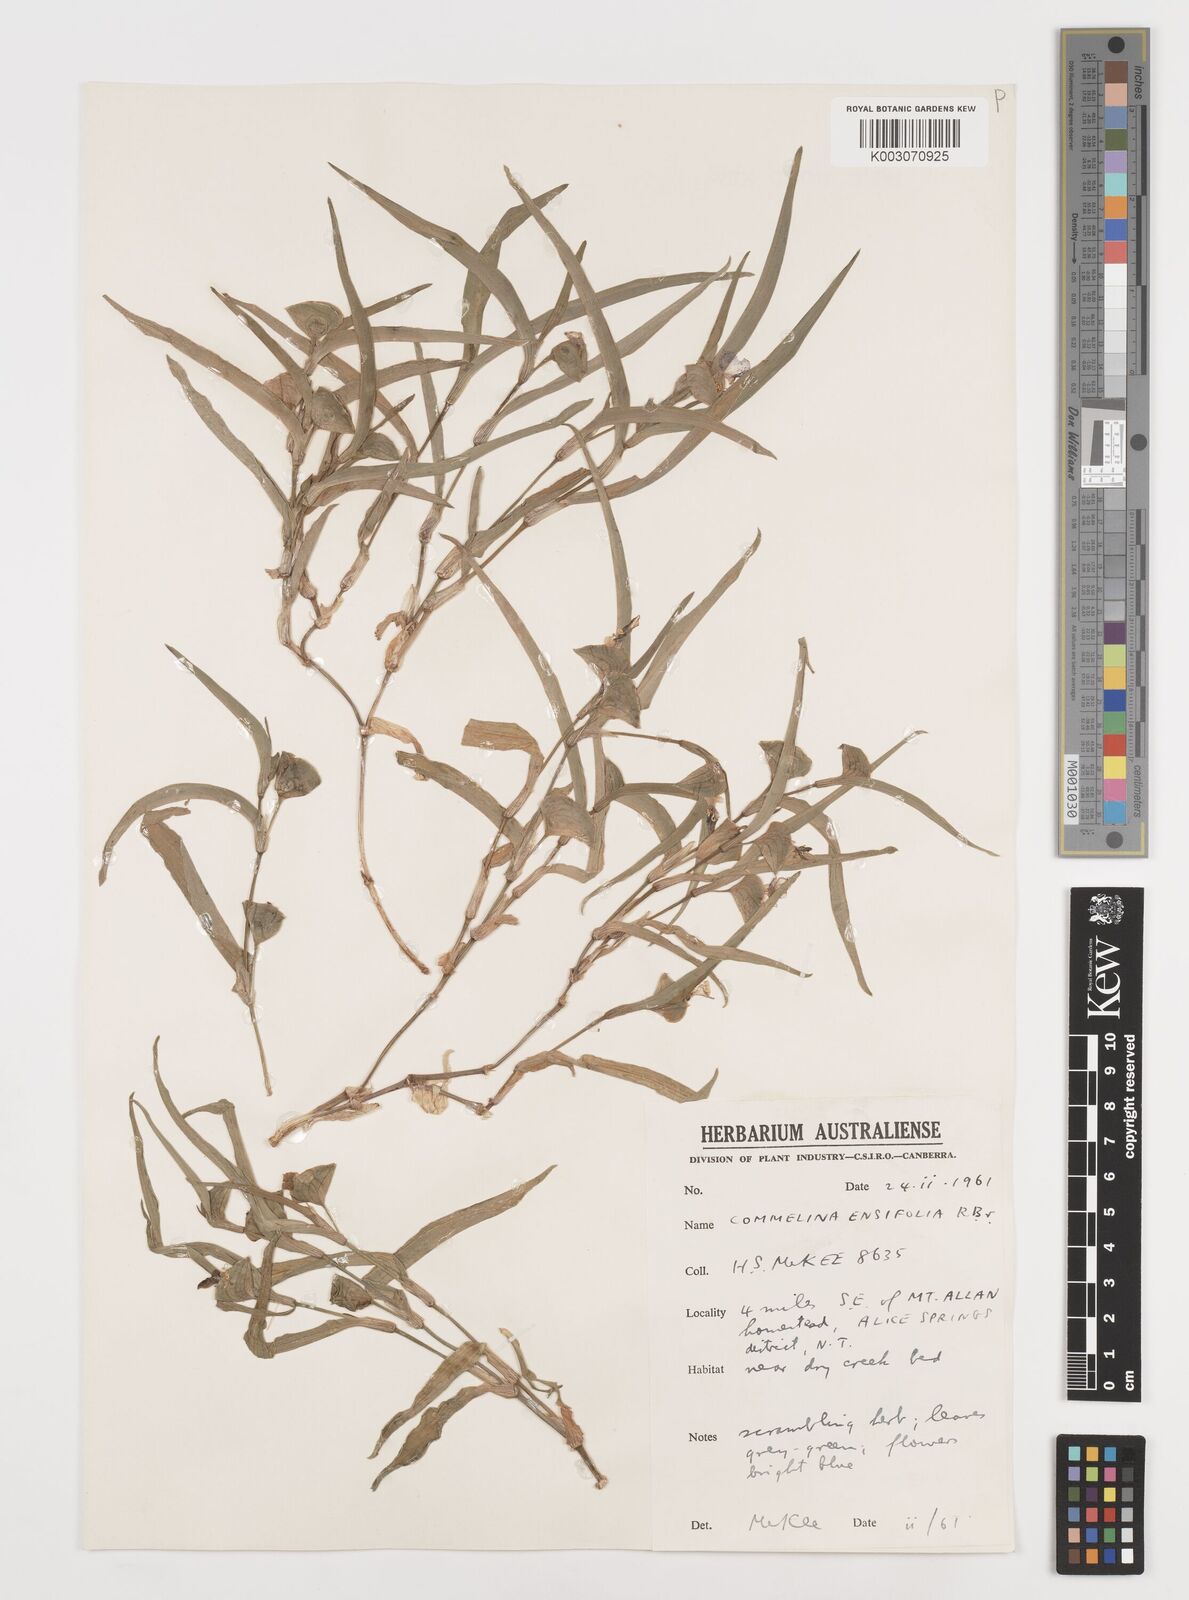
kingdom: Plantae
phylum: Tracheophyta
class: Liliopsida
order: Commelinales
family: Commelinaceae
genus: Commelina
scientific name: Commelina ensifolia
